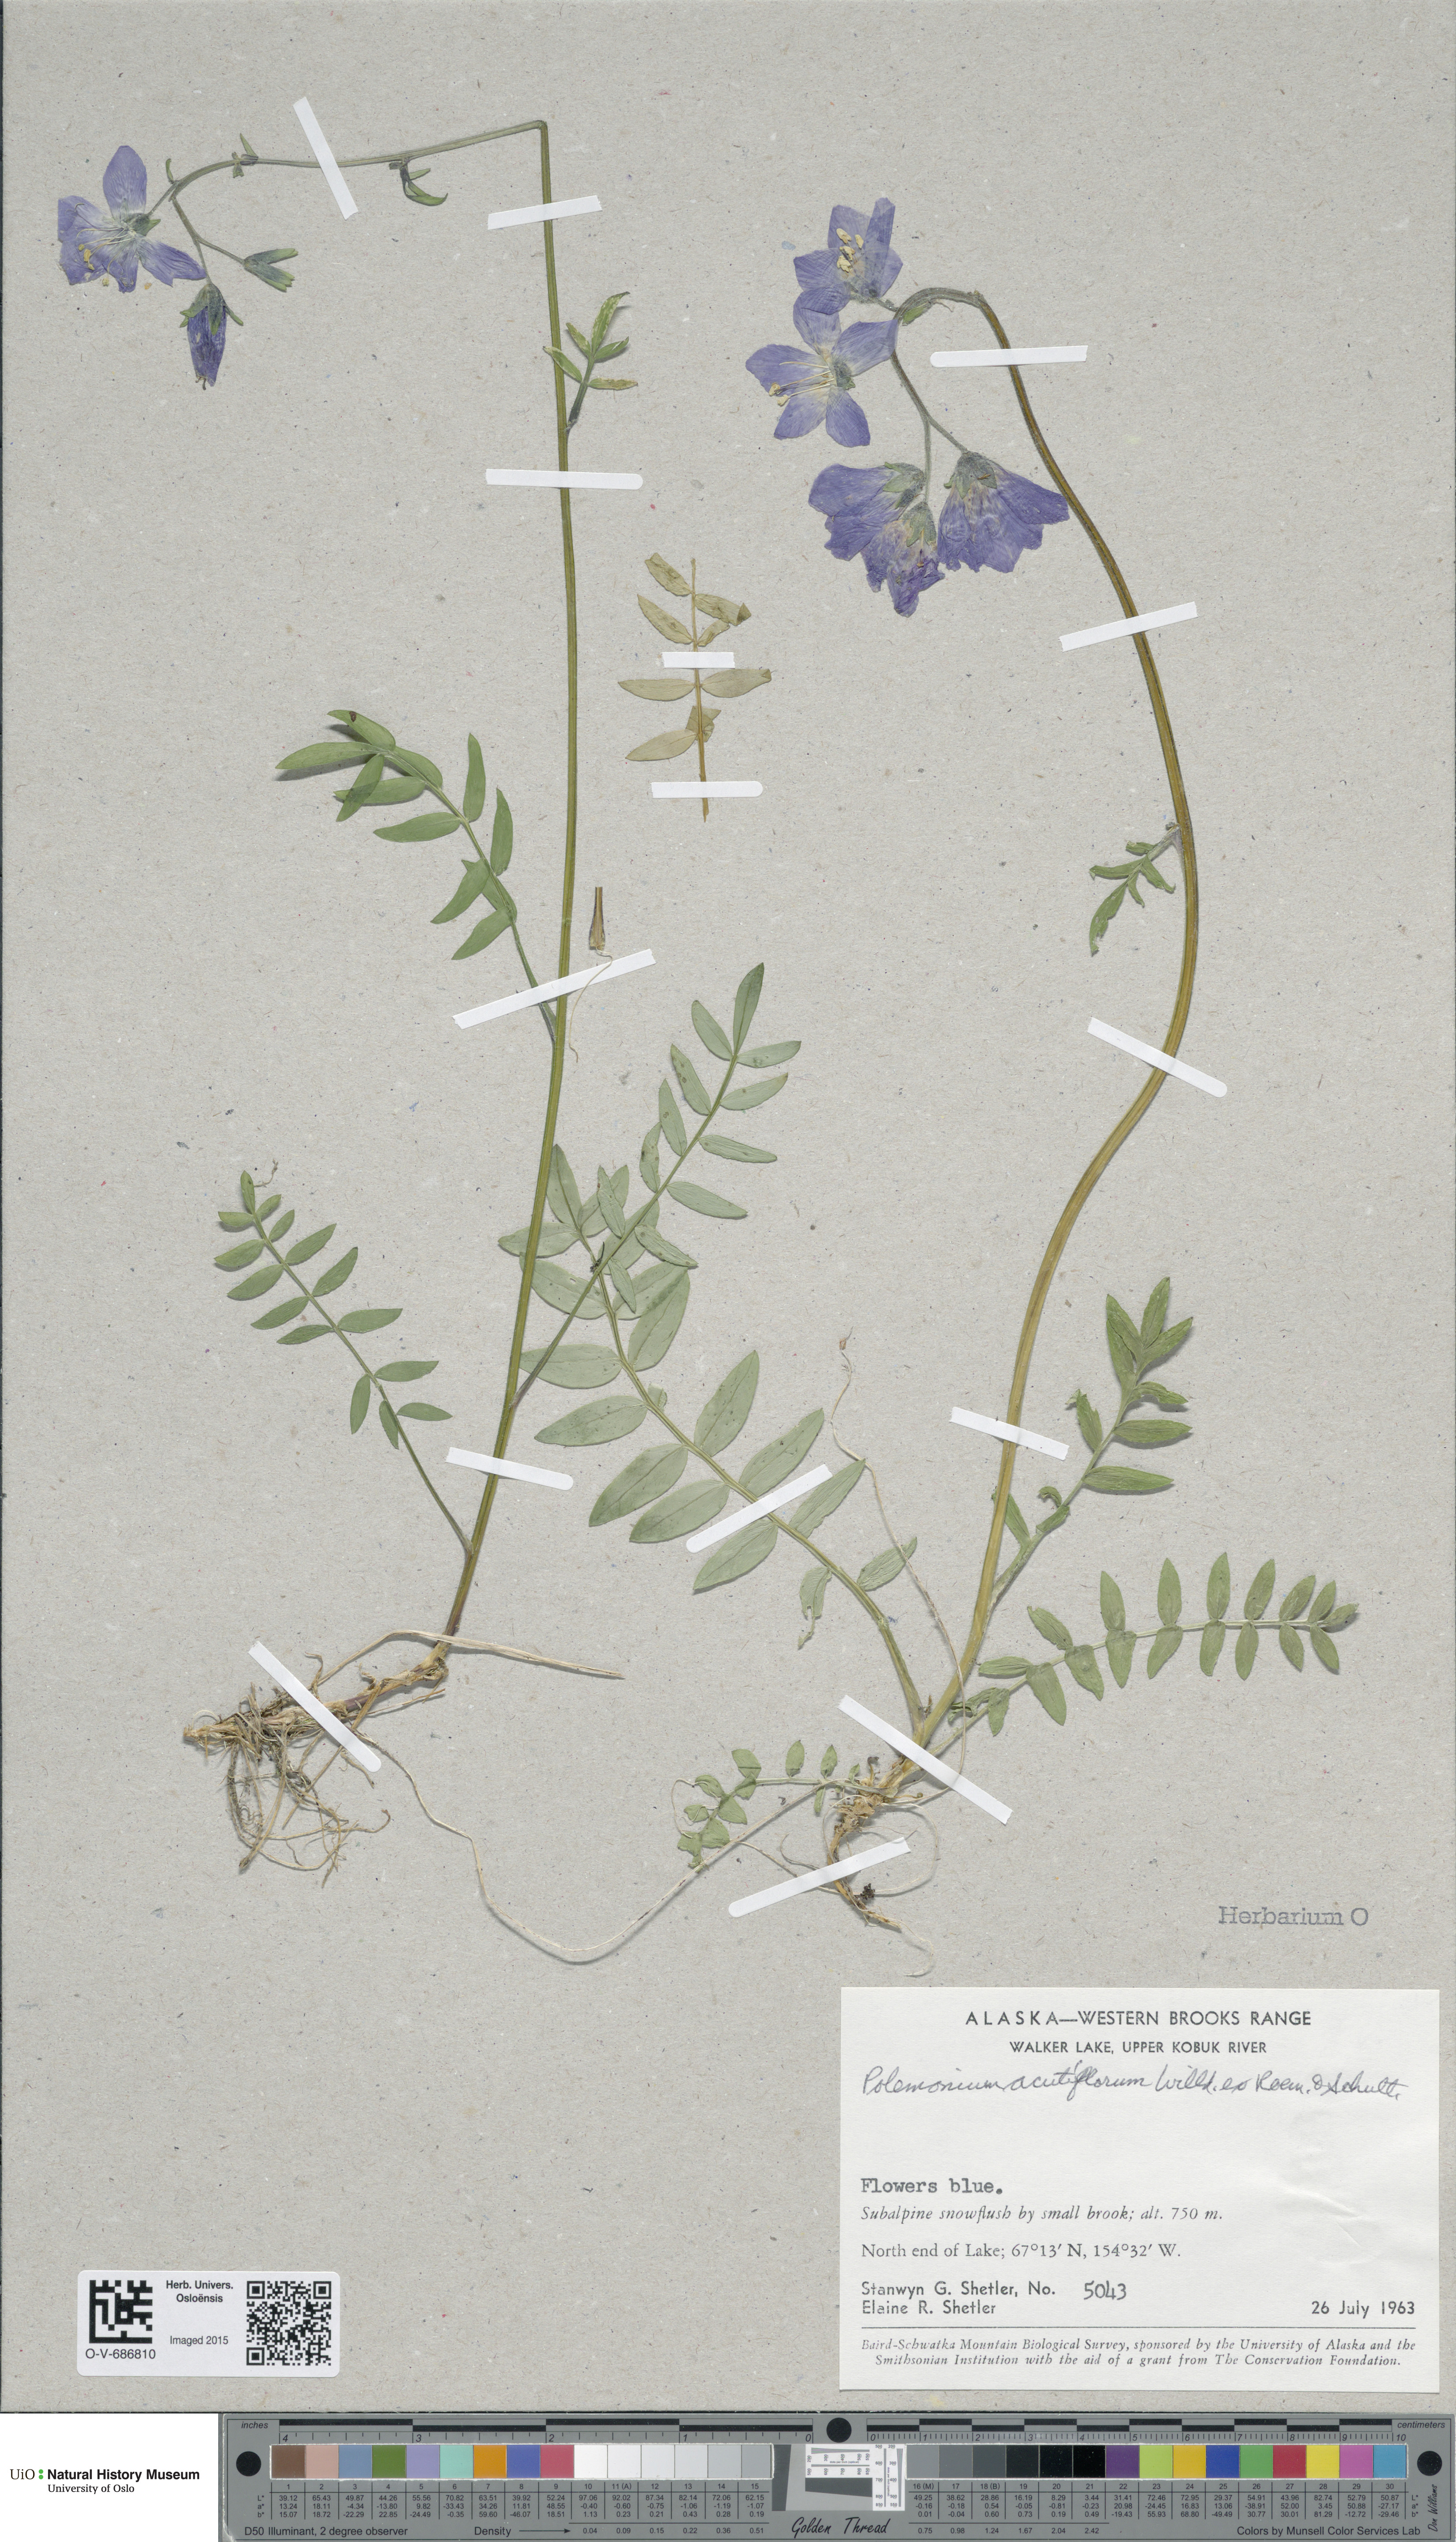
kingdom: Plantae
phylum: Tracheophyta
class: Magnoliopsida
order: Ericales
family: Polemoniaceae
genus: Polemonium
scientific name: Polemonium villosum
